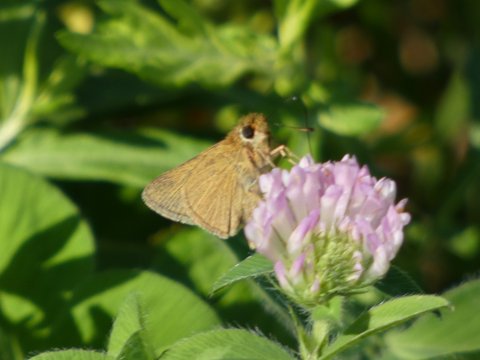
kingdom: Animalia
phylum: Arthropoda
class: Insecta
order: Lepidoptera
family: Hesperiidae
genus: Nastra
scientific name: Nastra lherminier
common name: Swarthy Skipper
